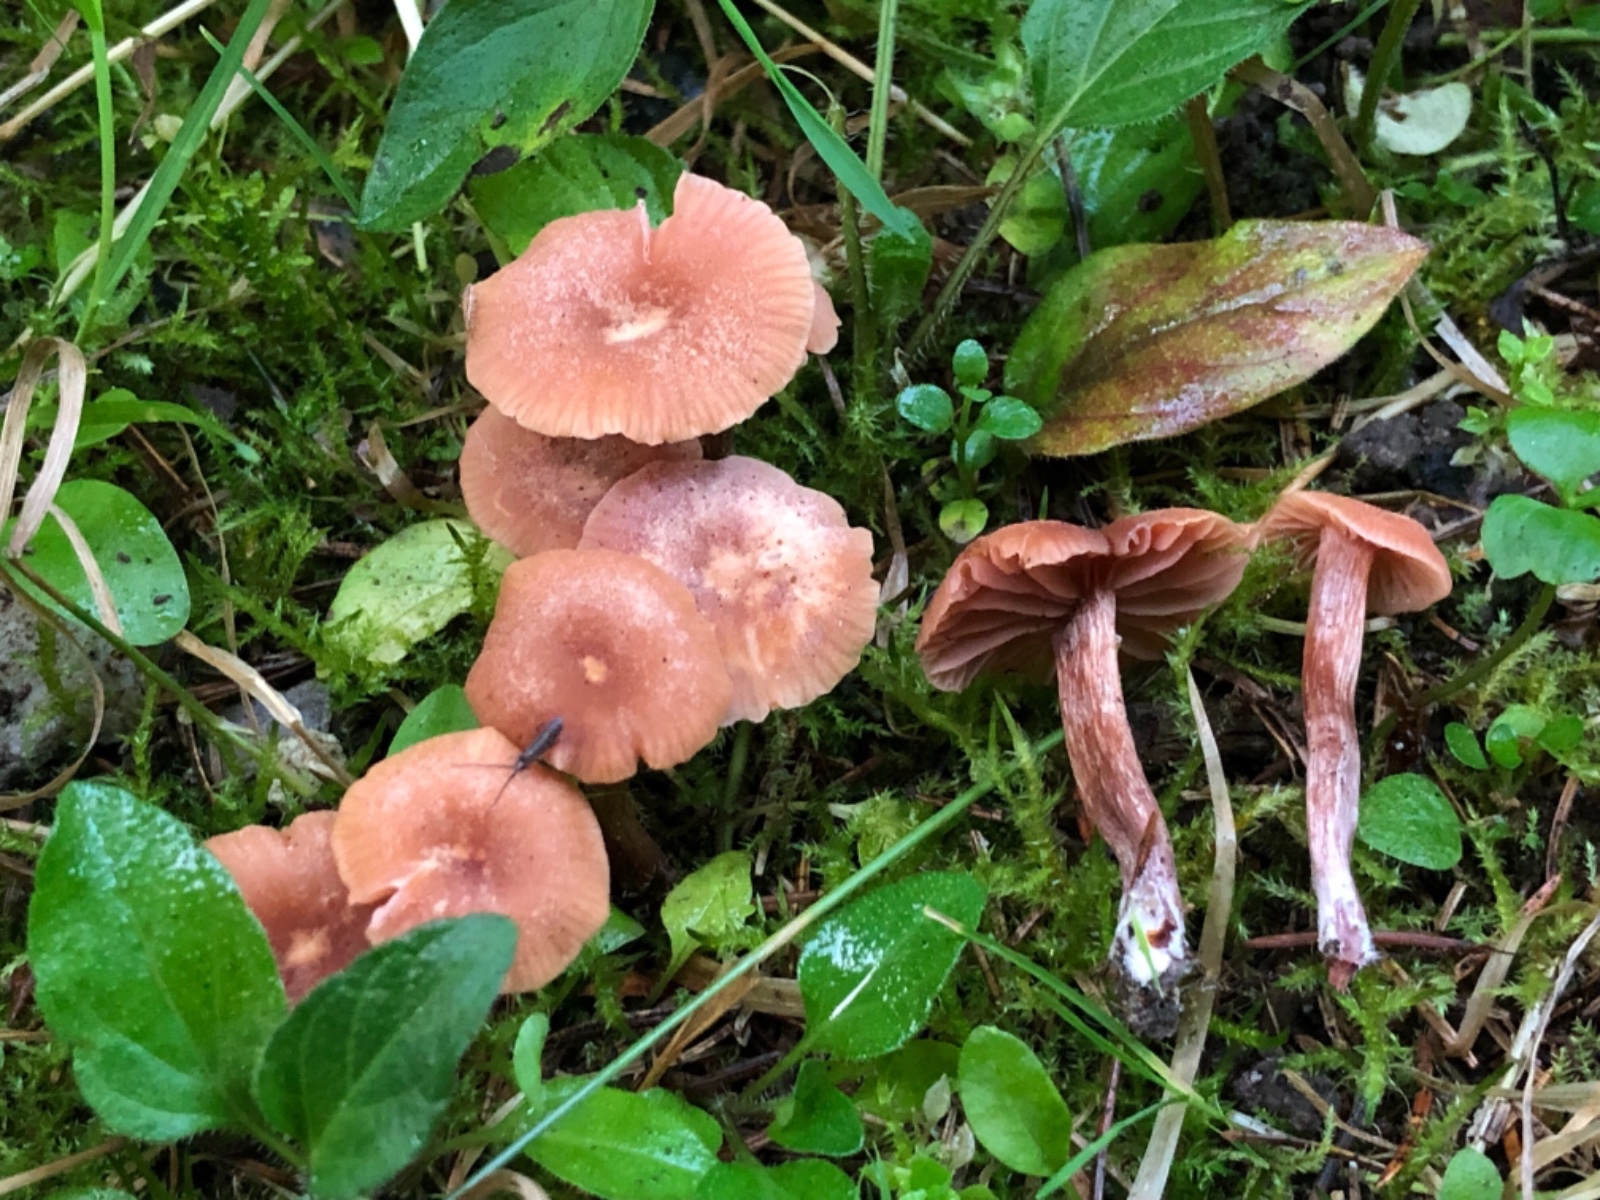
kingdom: Fungi
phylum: Basidiomycota
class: Agaricomycetes
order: Agaricales
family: Hydnangiaceae
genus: Laccaria
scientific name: Laccaria laccata
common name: rød ametysthat
